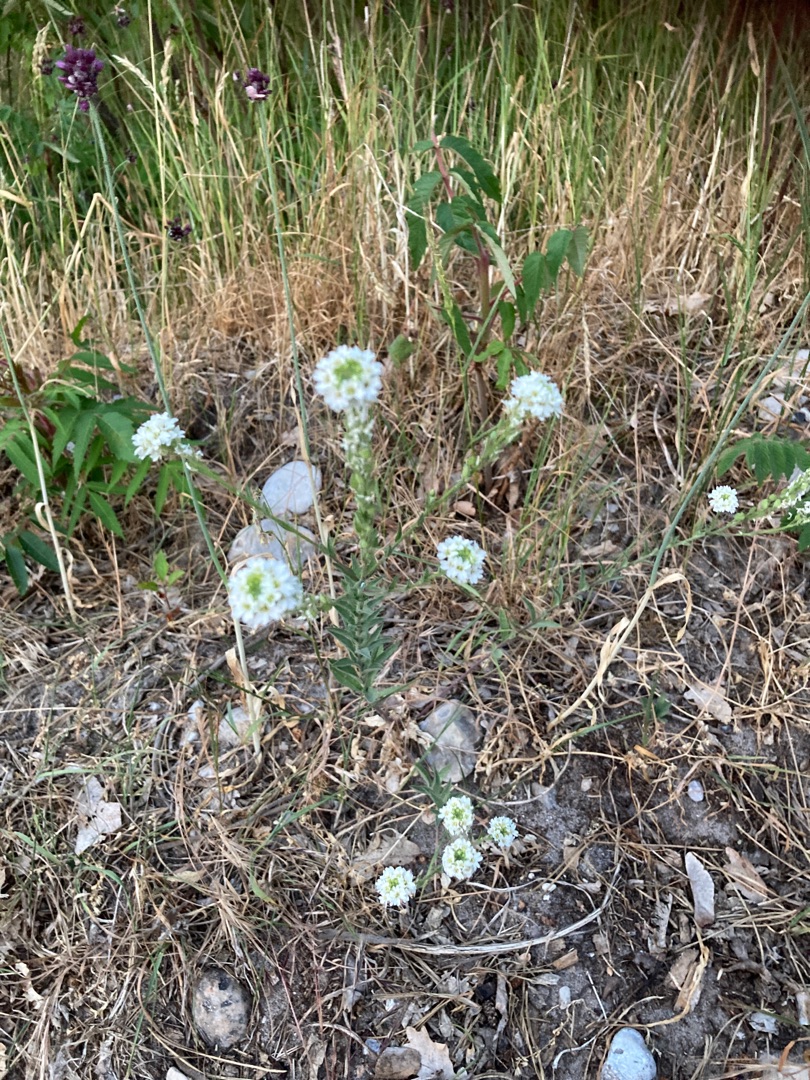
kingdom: Plantae
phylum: Tracheophyta
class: Magnoliopsida
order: Brassicales
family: Brassicaceae
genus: Berteroa
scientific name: Berteroa incana
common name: Kløvplade
